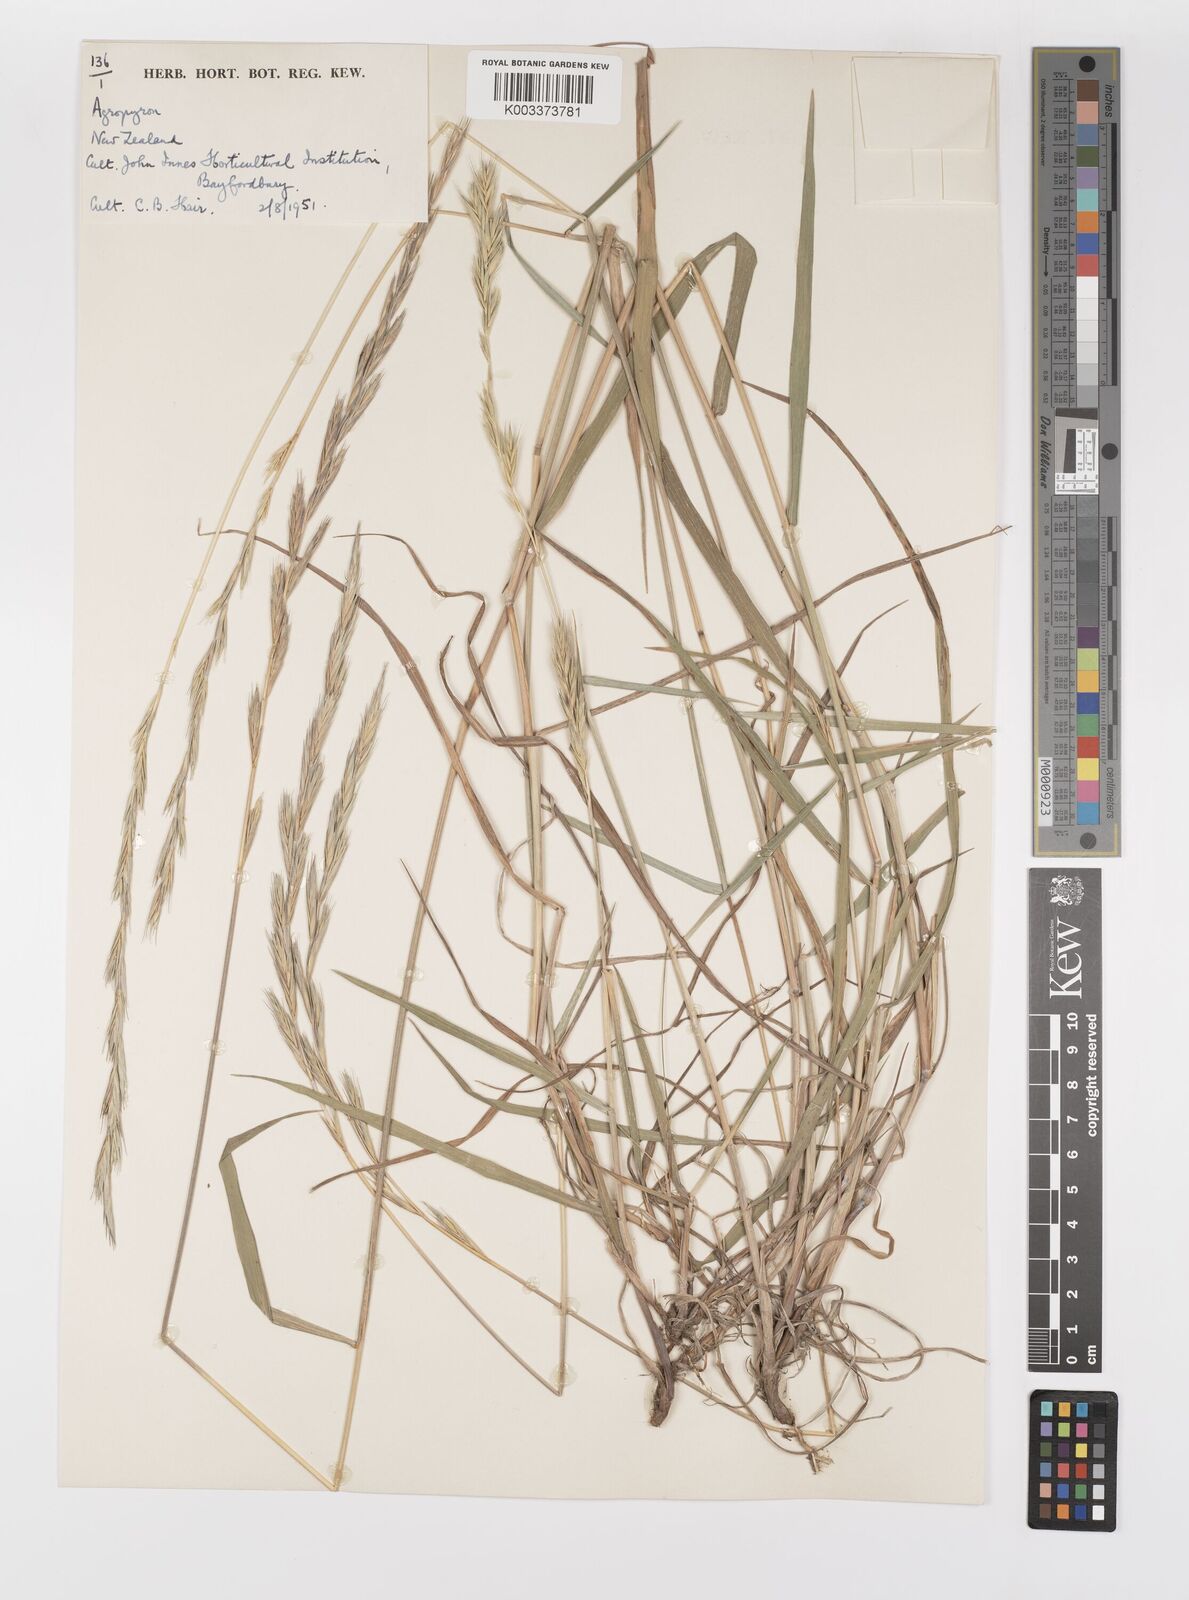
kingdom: Plantae
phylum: Tracheophyta
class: Liliopsida
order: Poales
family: Poaceae
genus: Elymus
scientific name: Elymus
